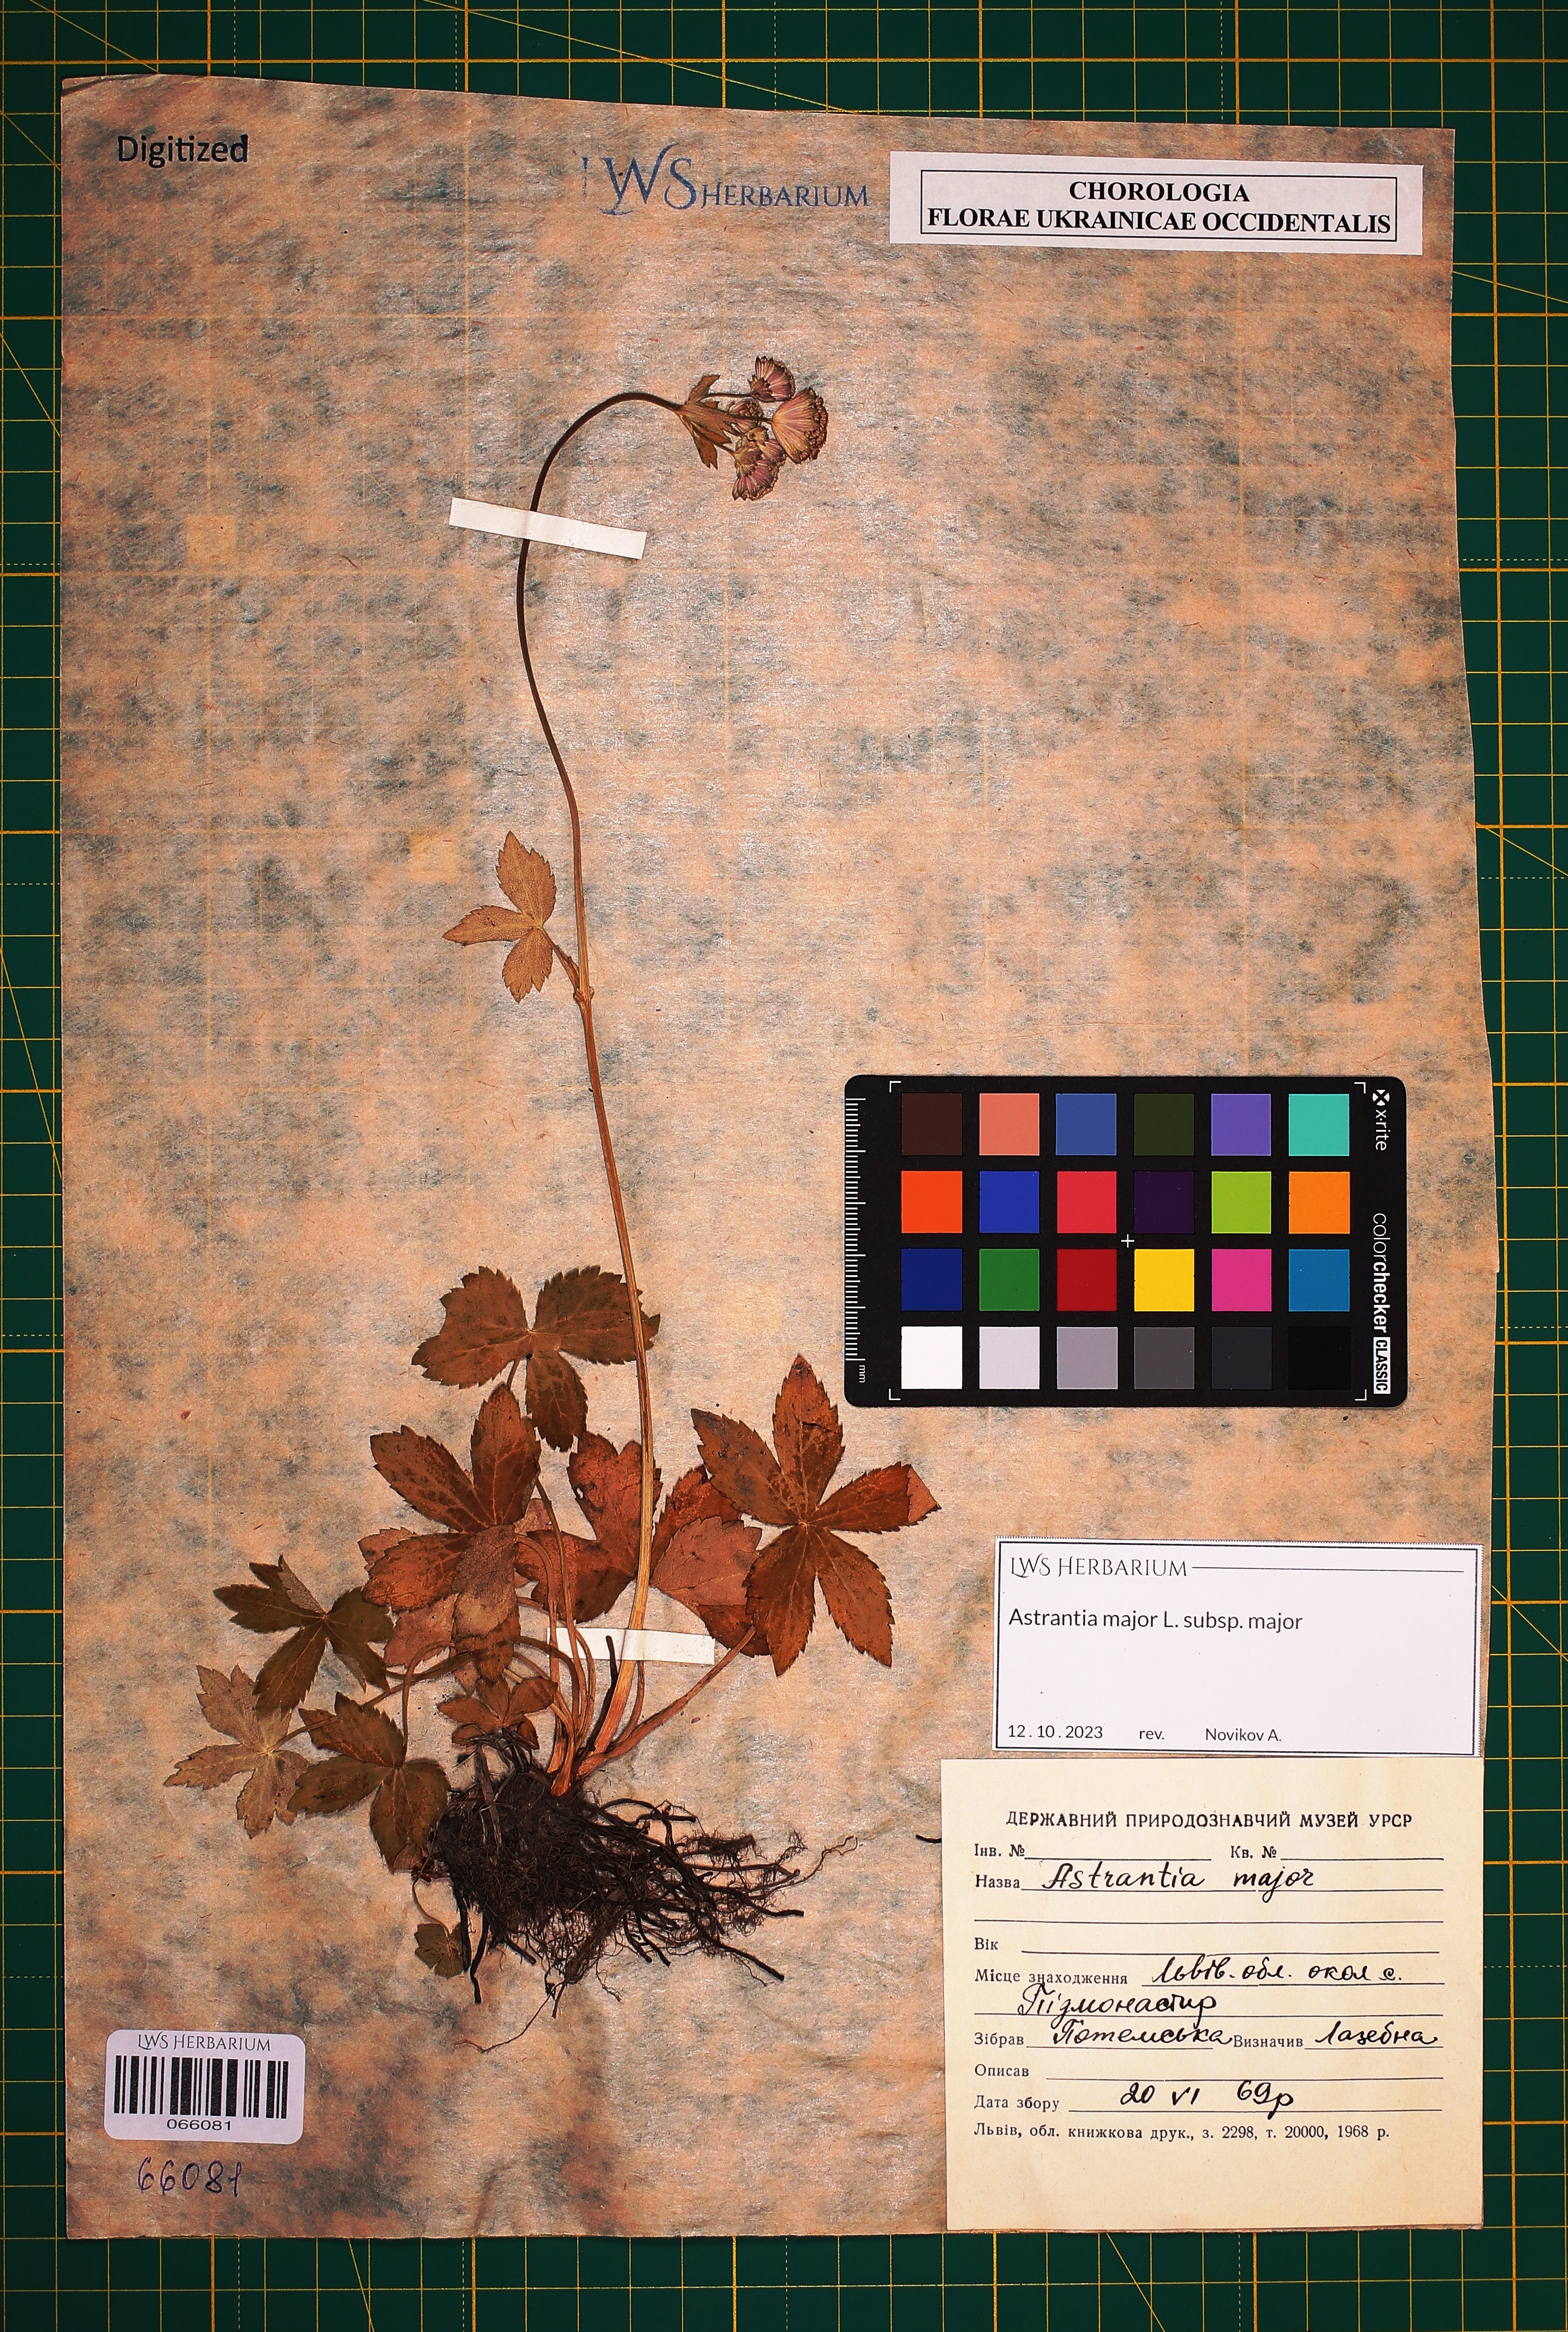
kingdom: Plantae
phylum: Tracheophyta
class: Magnoliopsida
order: Apiales
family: Apiaceae
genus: Astrantia
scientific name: Astrantia major
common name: Greater masterwort
